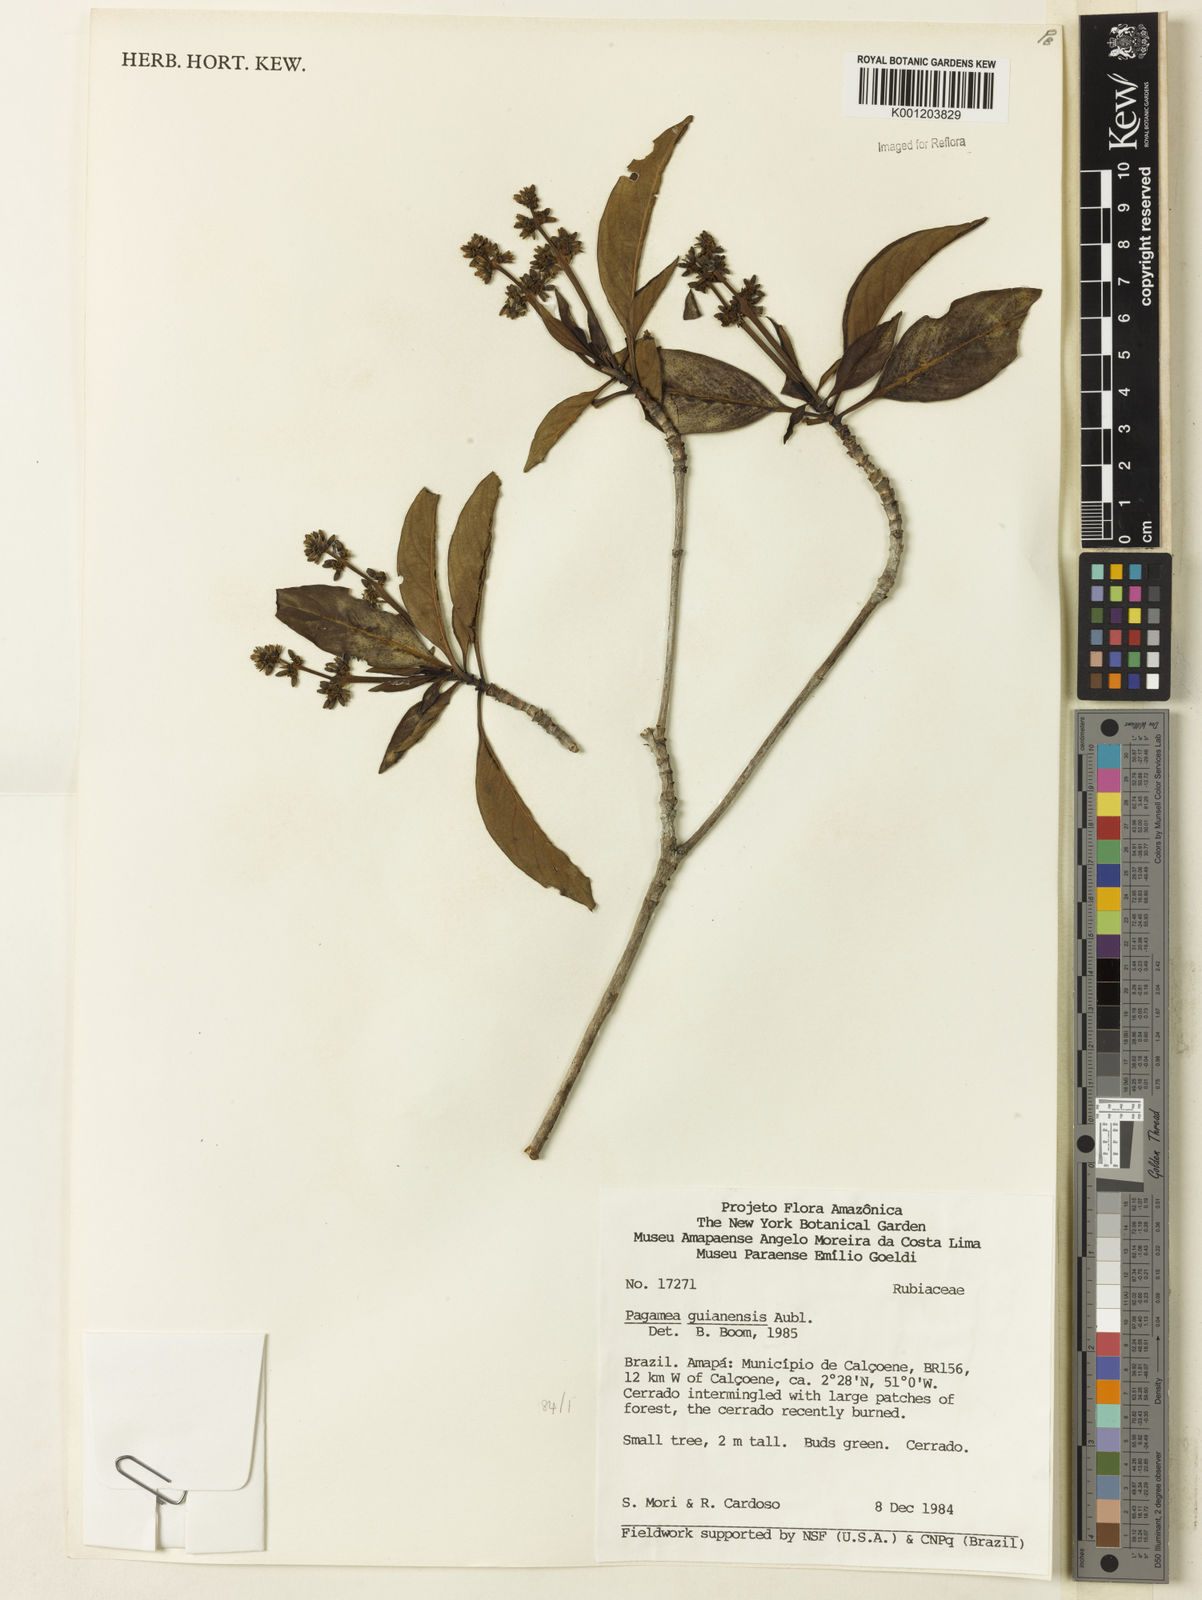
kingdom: Plantae
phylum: Tracheophyta
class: Magnoliopsida
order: Gentianales
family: Rubiaceae
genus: Pagamea
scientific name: Pagamea guianensis
